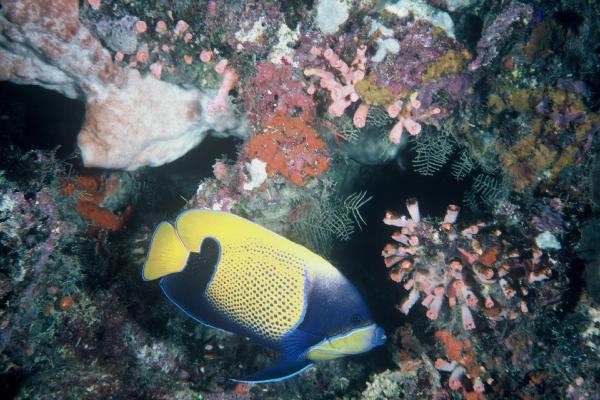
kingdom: Animalia
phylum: Chordata
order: Perciformes
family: Pomacanthidae
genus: Pomacanthus
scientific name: Pomacanthus navarchus
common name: Blue-girdled angelfish
